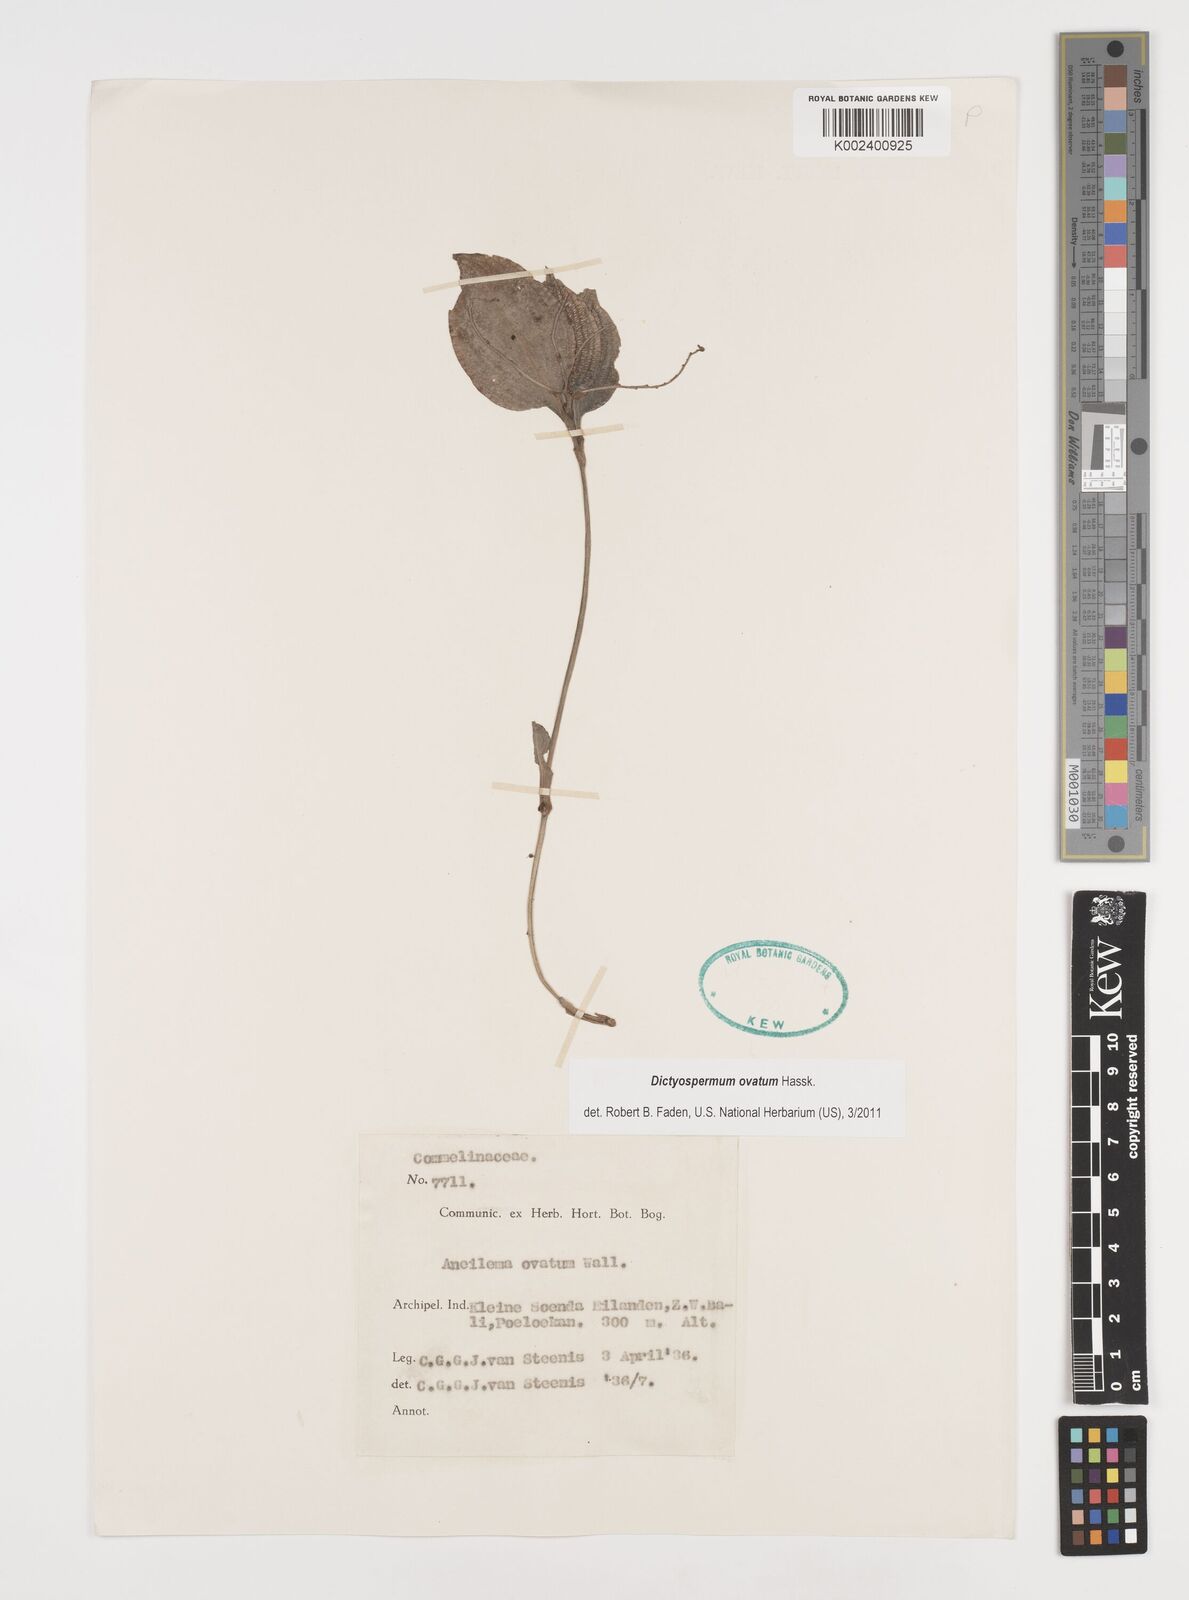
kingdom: Plantae
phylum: Tracheophyta
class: Liliopsida
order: Commelinales
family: Commelinaceae
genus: Dictyospermum
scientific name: Dictyospermum ovatum
